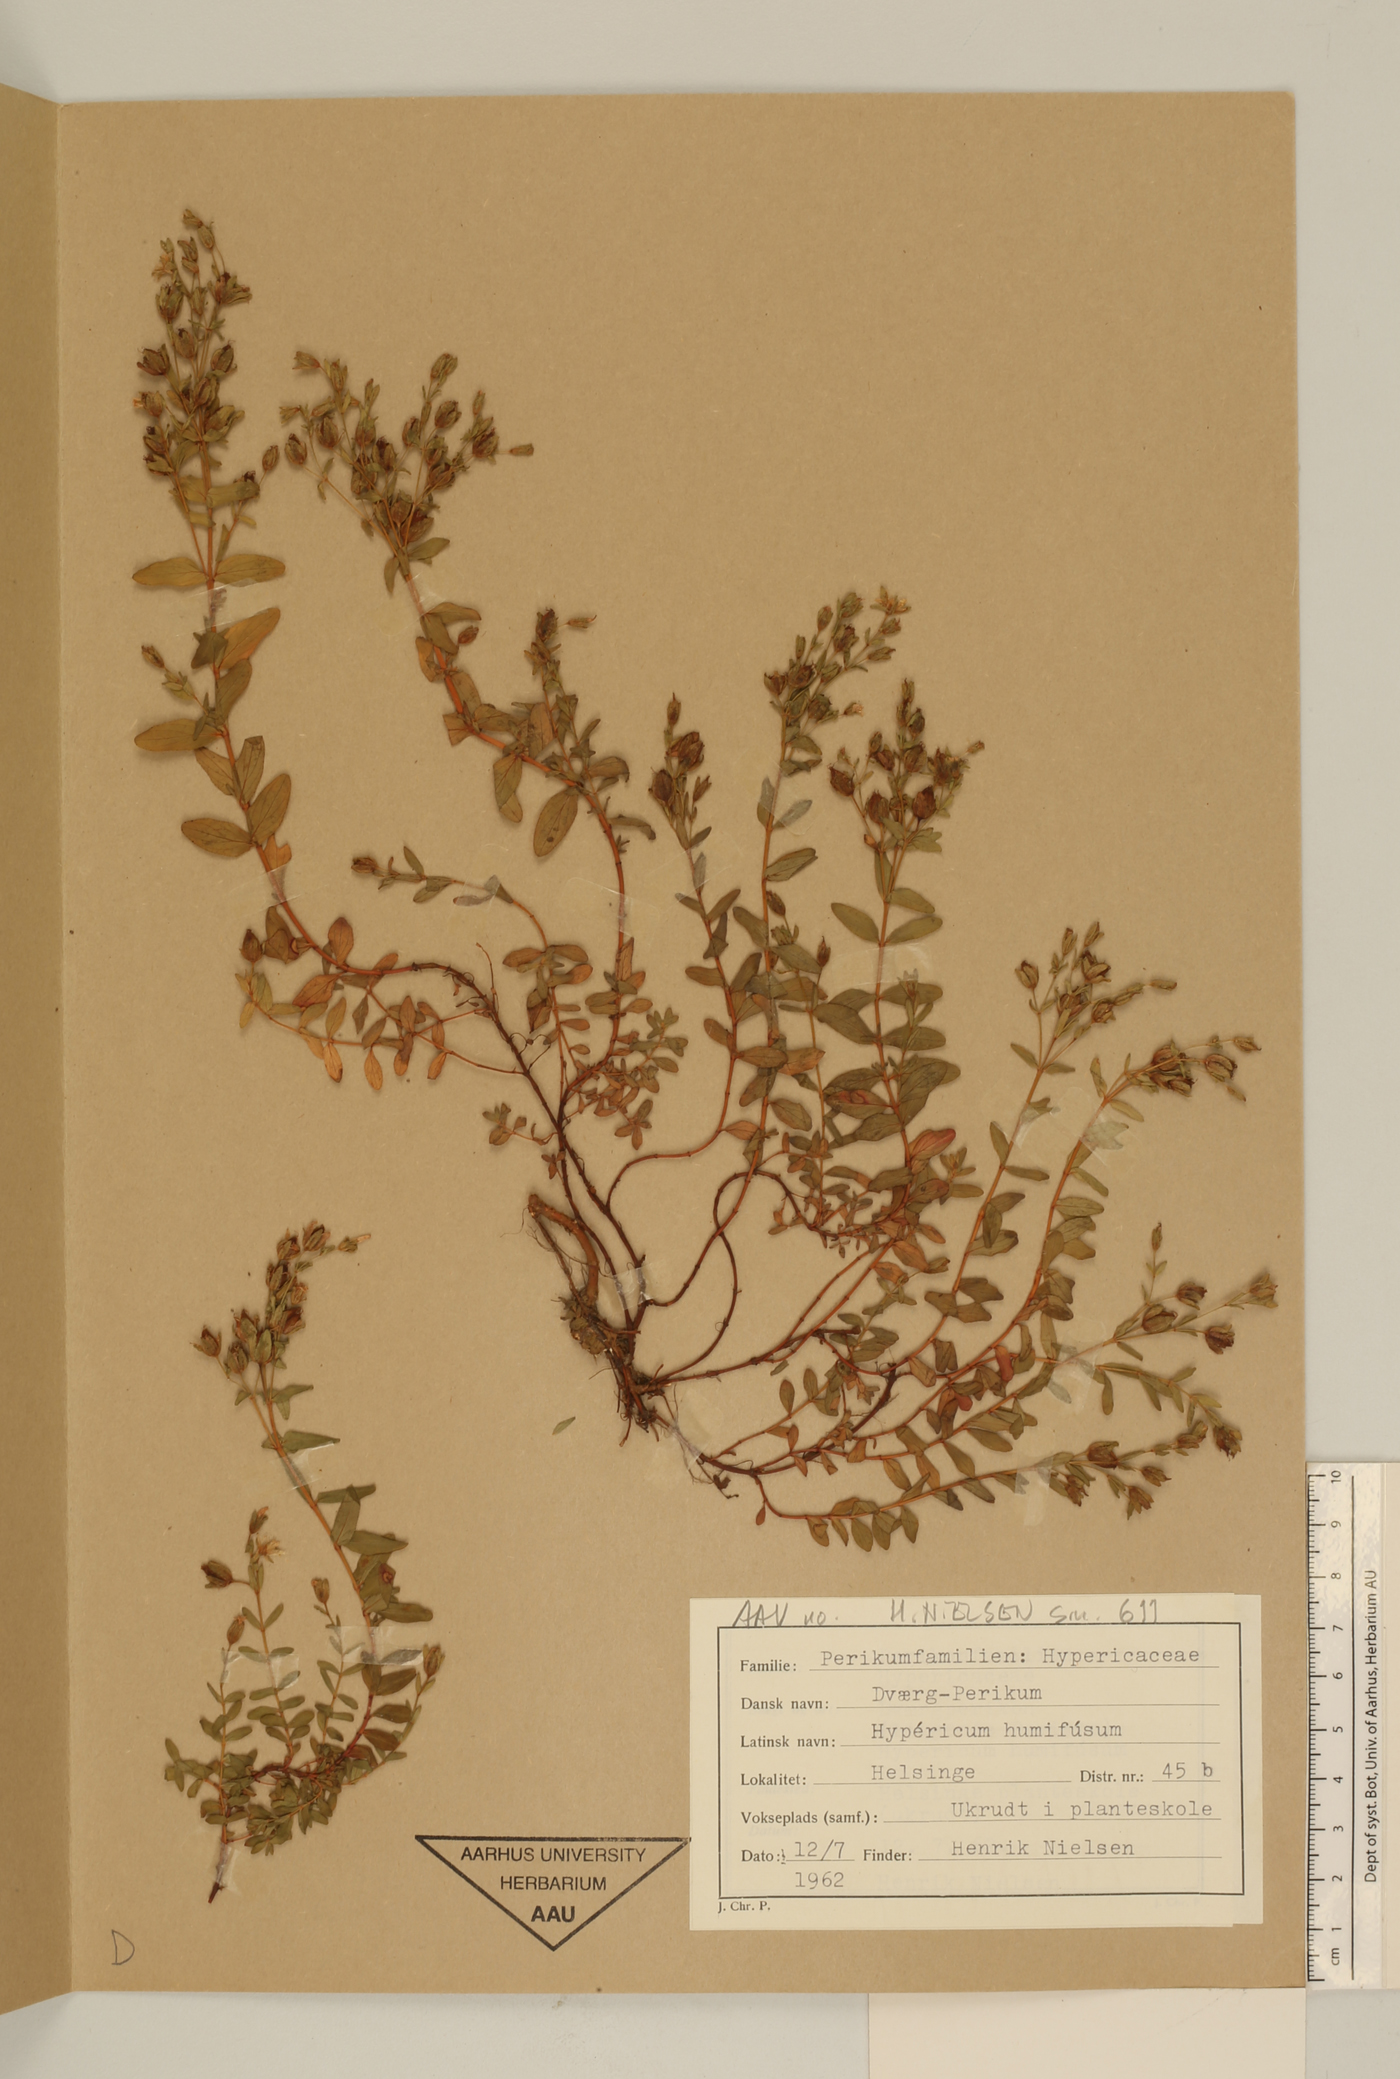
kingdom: Plantae
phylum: Tracheophyta
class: Magnoliopsida
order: Malpighiales
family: Hypericaceae
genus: Hypericum
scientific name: Hypericum humifusum
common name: Trailing st. john's-wort
